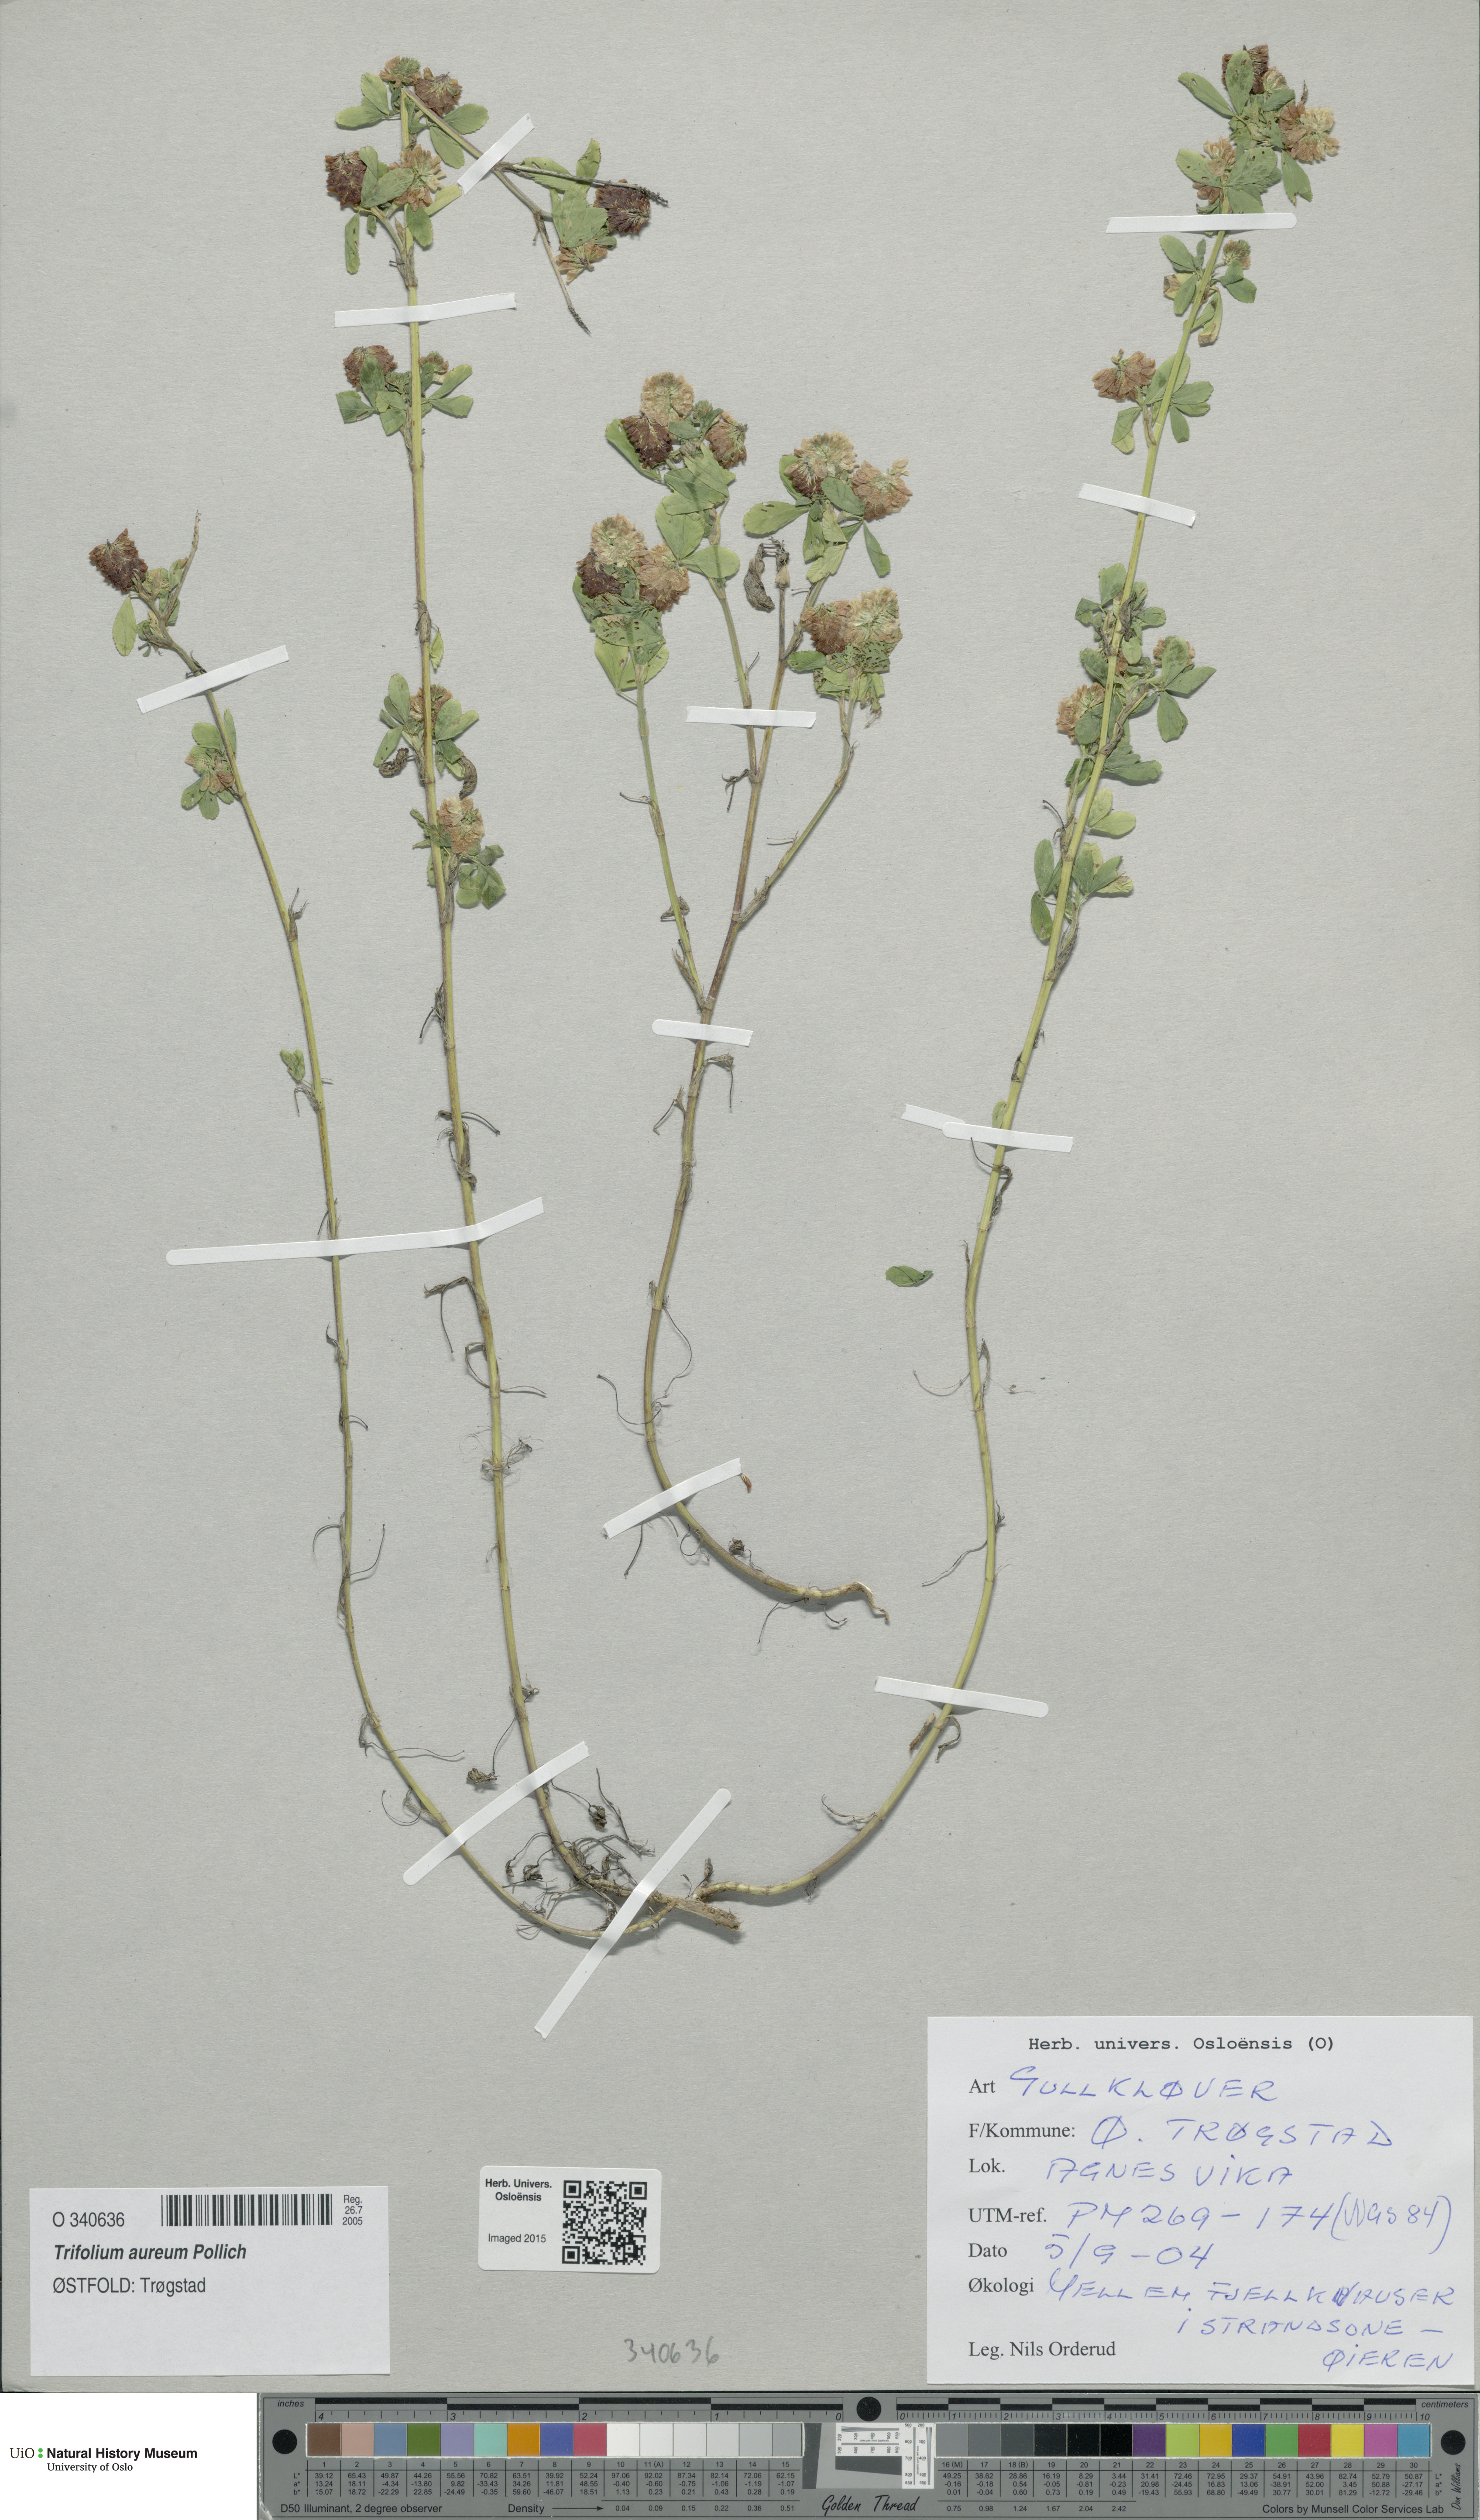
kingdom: Plantae
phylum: Tracheophyta
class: Magnoliopsida
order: Fabales
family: Fabaceae
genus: Trifolium
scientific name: Trifolium aureum
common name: Golden clover
